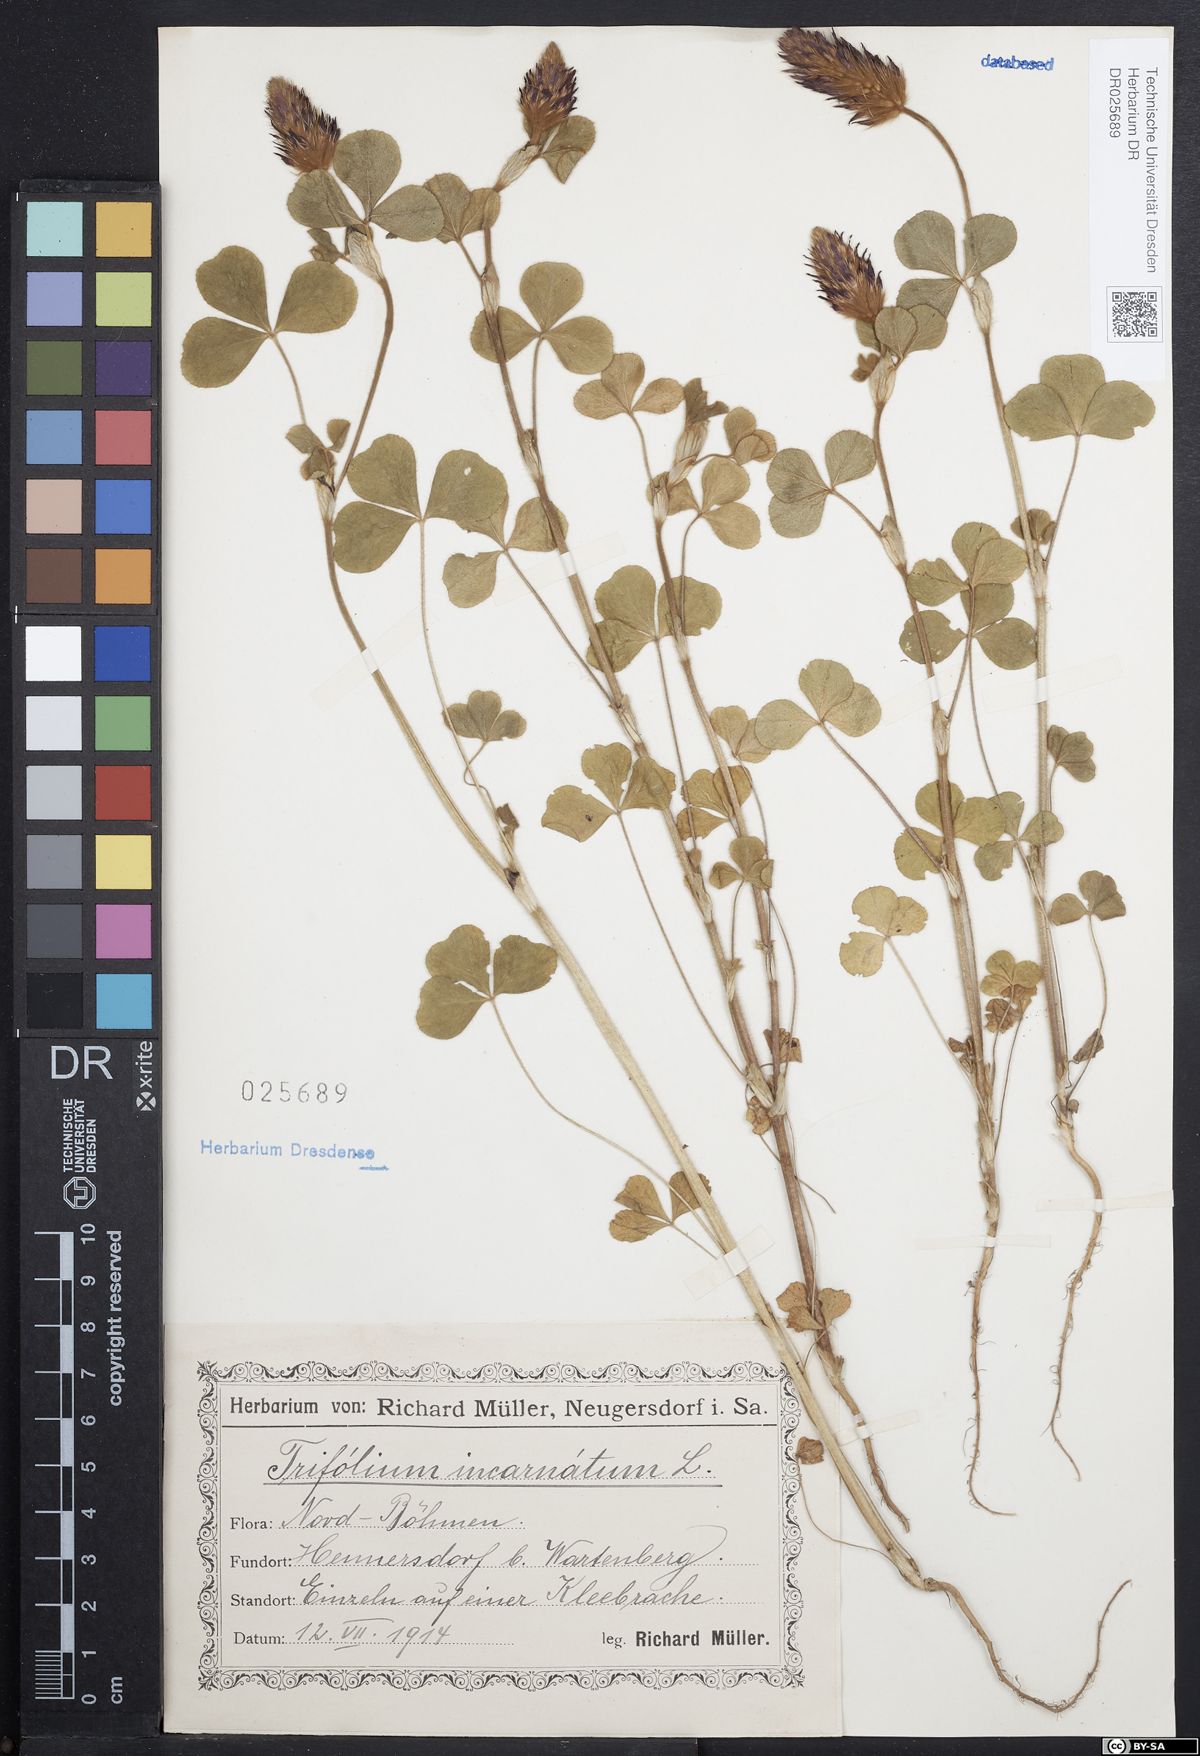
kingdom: Plantae
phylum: Tracheophyta
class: Magnoliopsida
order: Fabales
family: Fabaceae
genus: Trifolium
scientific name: Trifolium incarnatum
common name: Crimson clover
